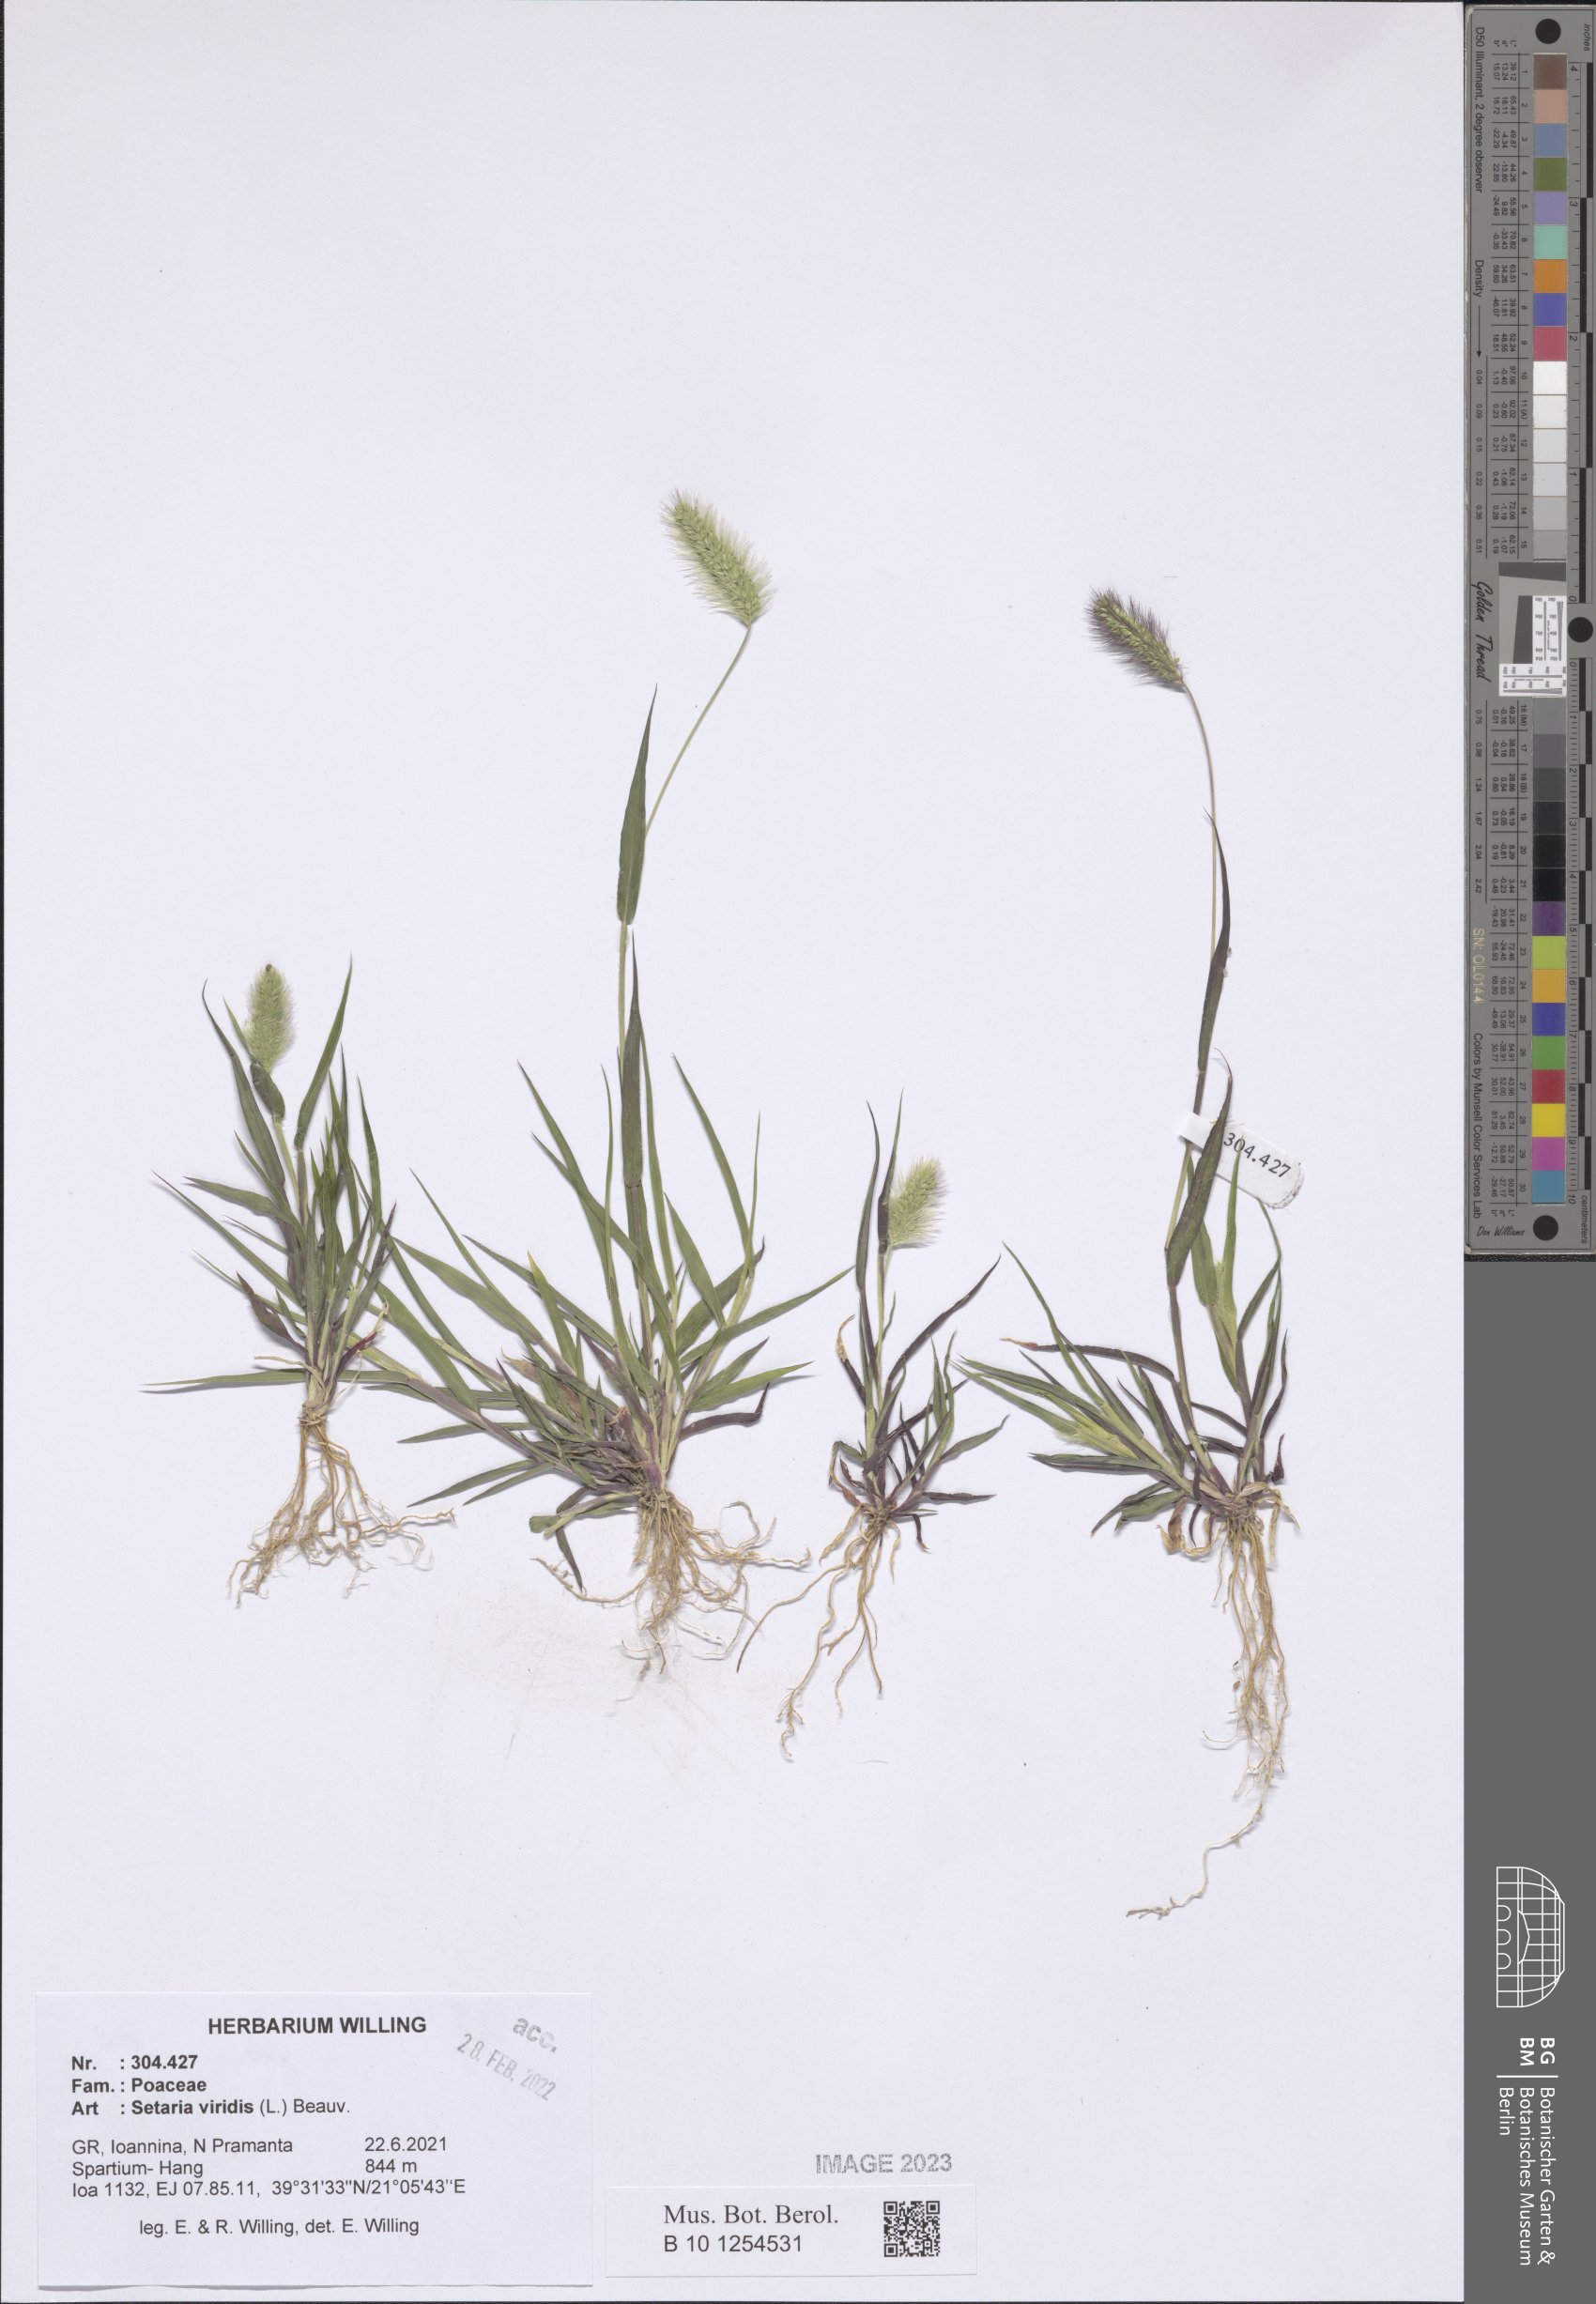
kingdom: Plantae
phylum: Tracheophyta
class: Liliopsida
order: Poales
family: Poaceae
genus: Setaria
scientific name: Setaria viridis
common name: Green bristlegrass
